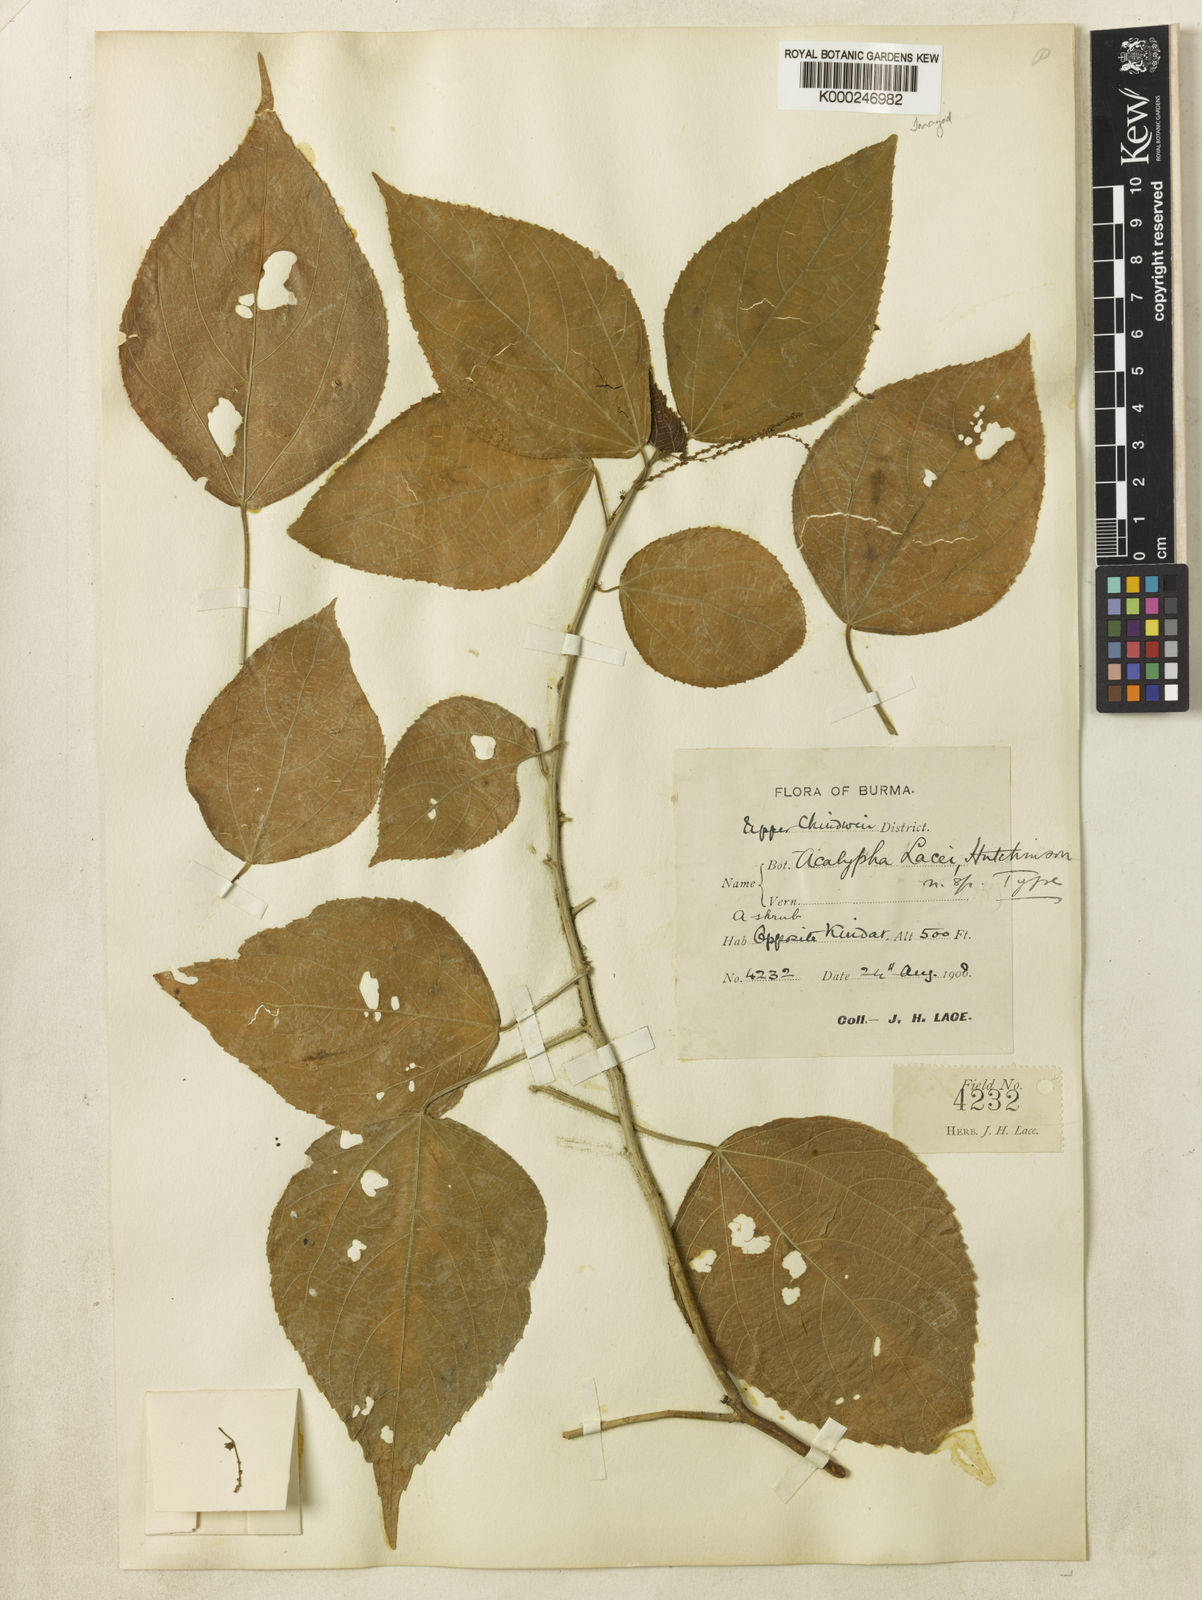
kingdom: Plantae
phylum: Tracheophyta
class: Magnoliopsida
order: Malpighiales
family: Euphorbiaceae
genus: Acalypha
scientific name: Acalypha kerrii
